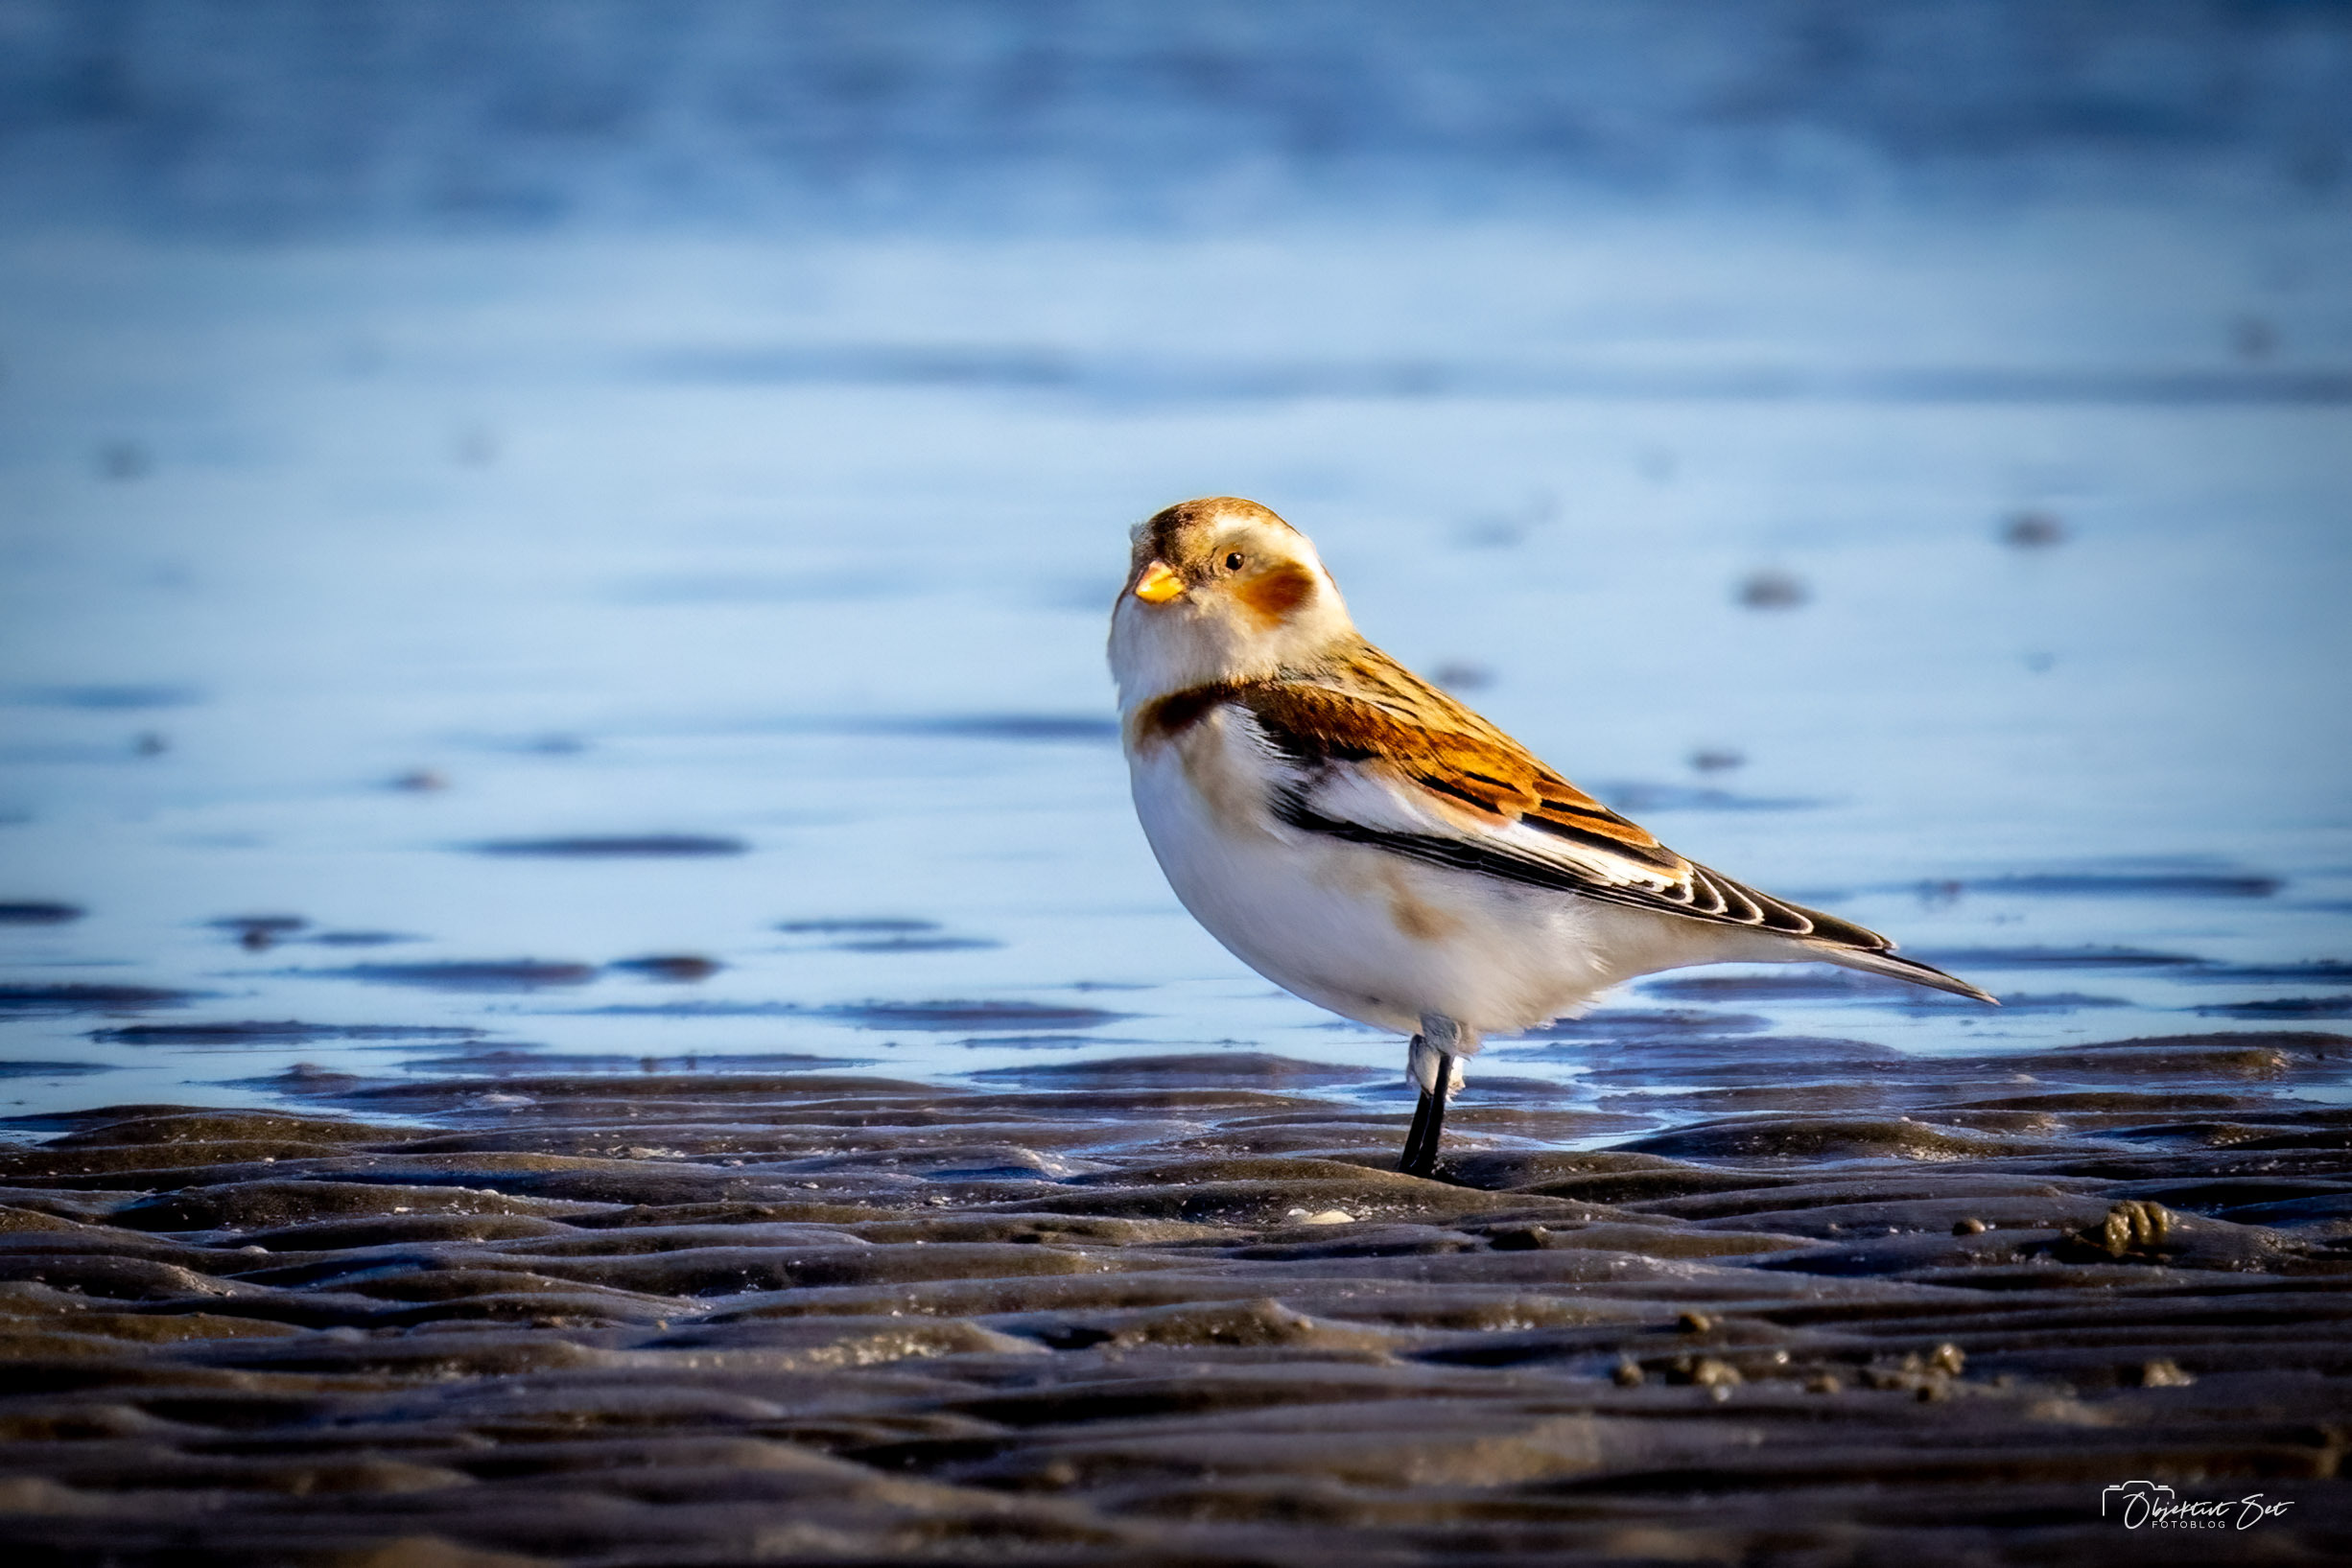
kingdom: Animalia
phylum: Chordata
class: Aves
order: Passeriformes
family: Calcariidae
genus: Plectrophenax
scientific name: Plectrophenax nivalis
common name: Snespurv
